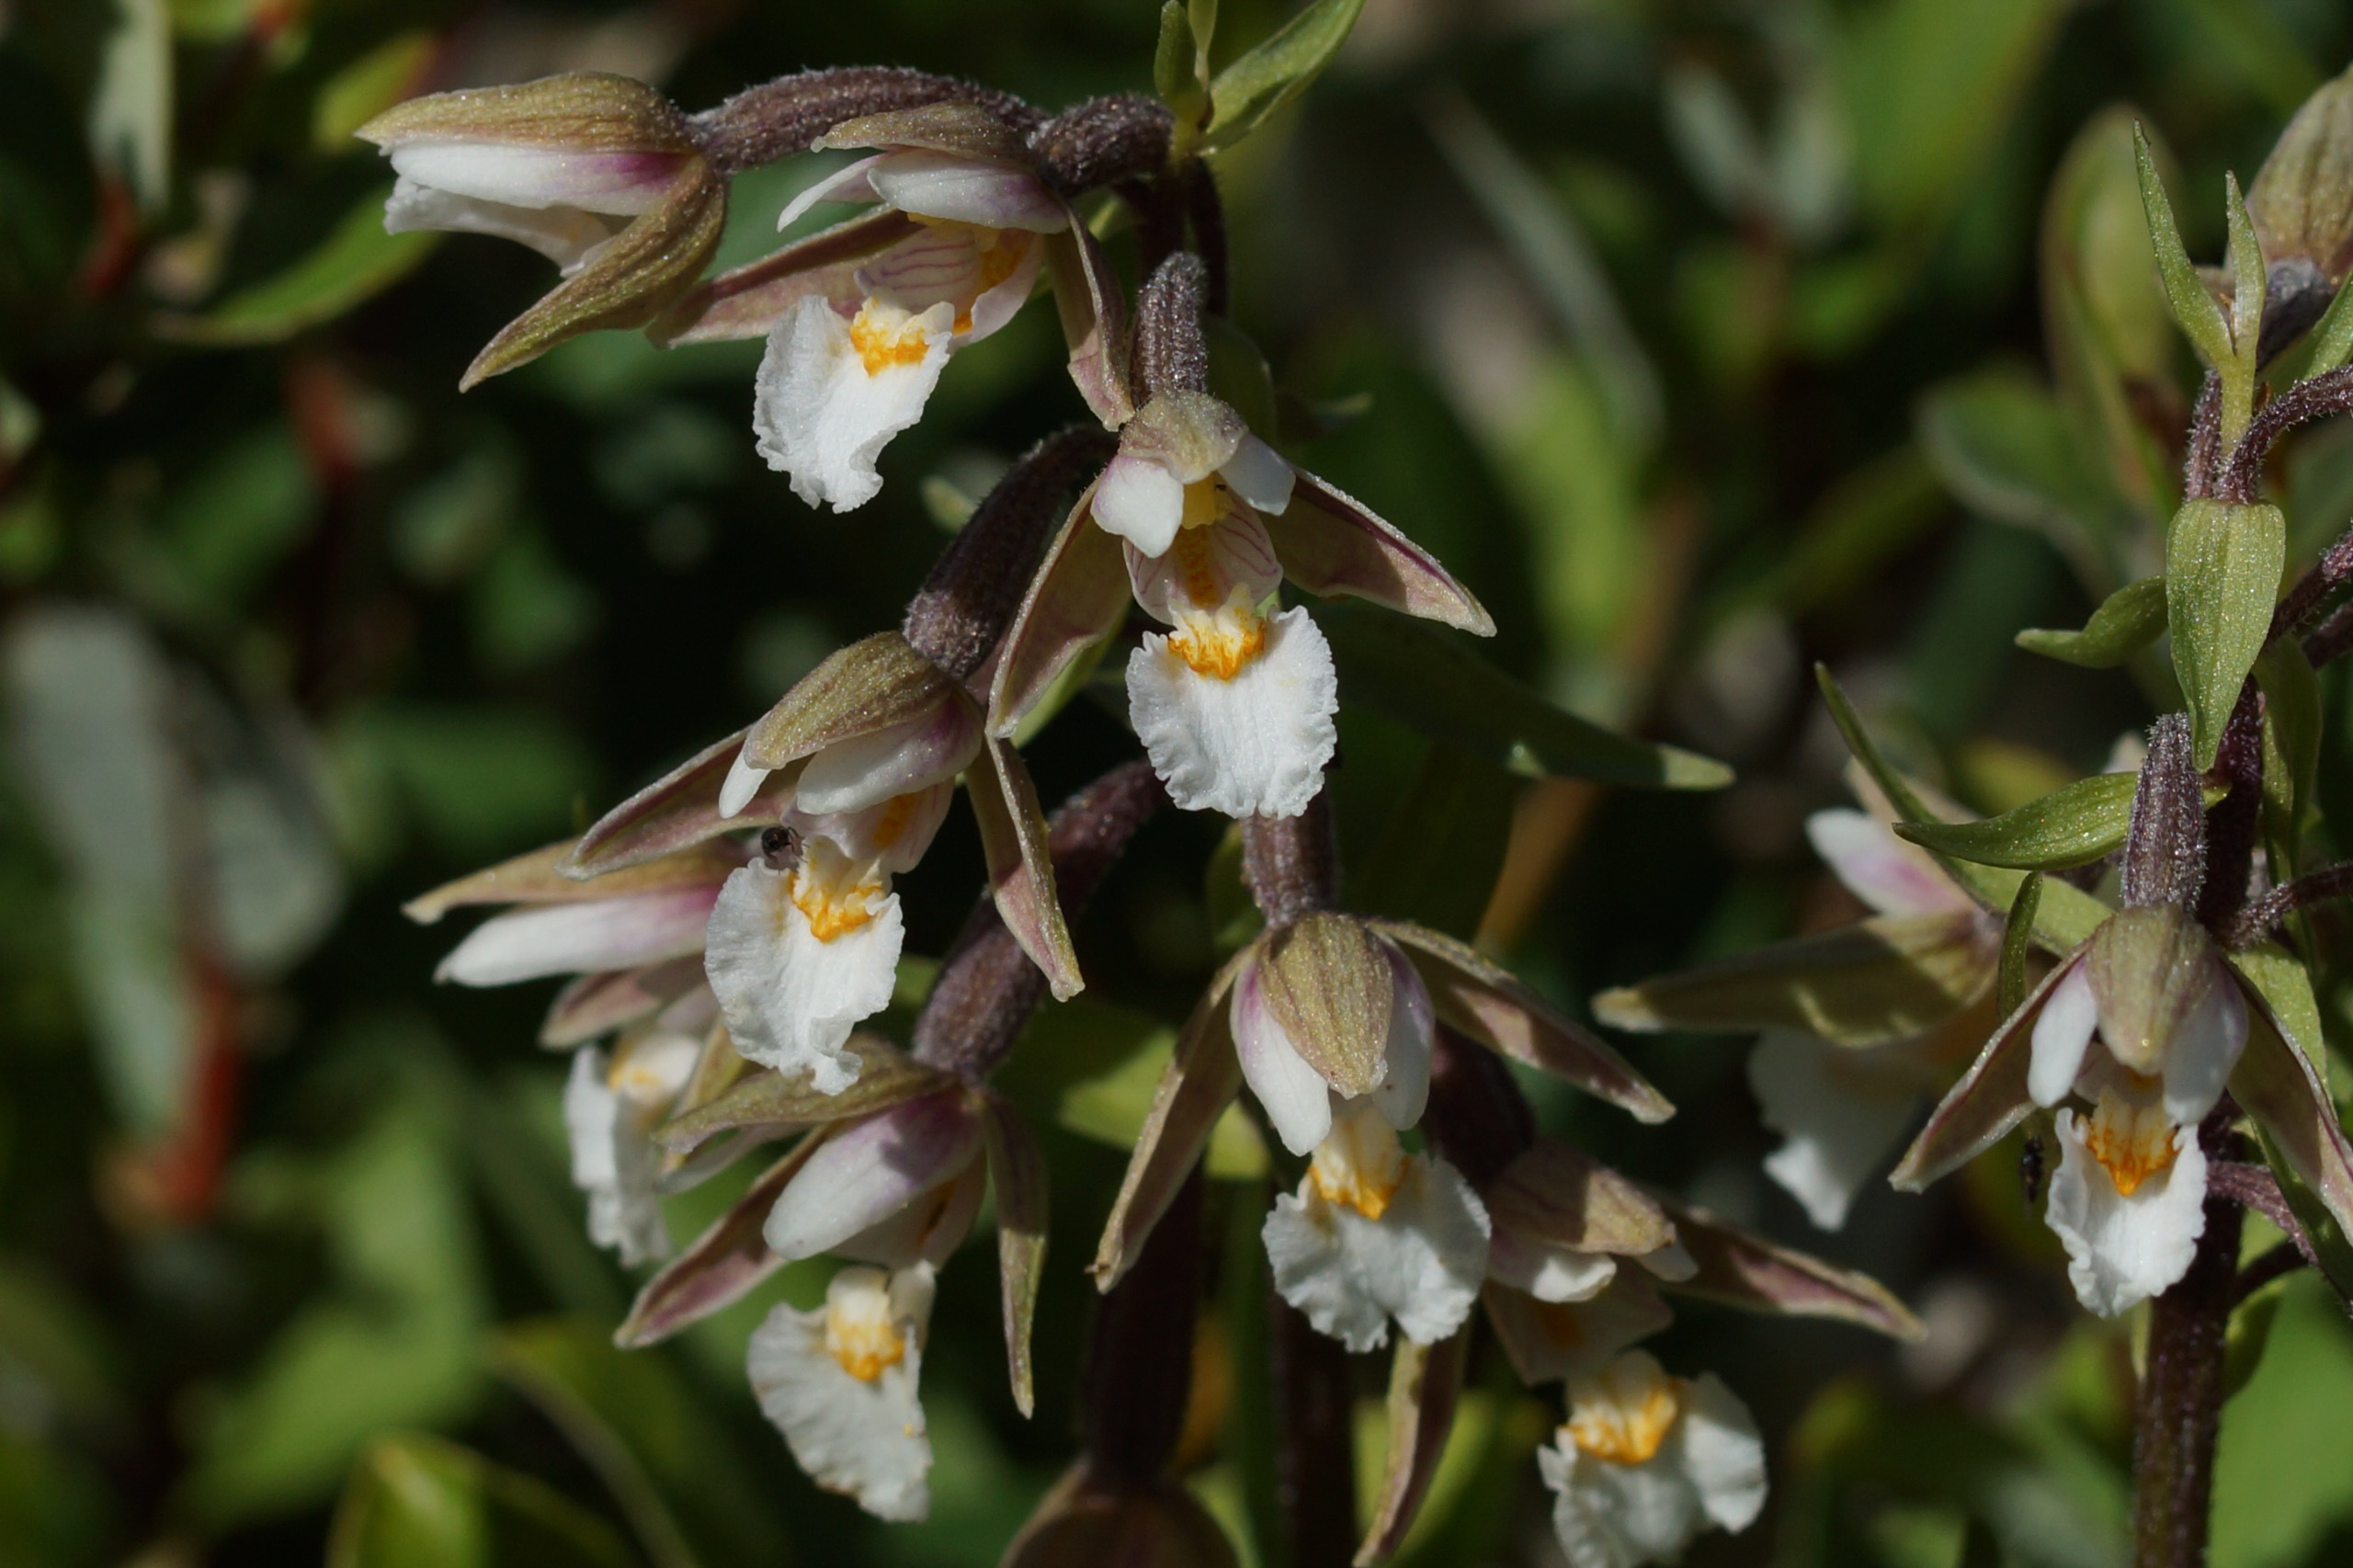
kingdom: Plantae
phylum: Tracheophyta
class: Liliopsida
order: Asparagales
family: Orchidaceae
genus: Epipactis
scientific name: Epipactis palustris
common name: Sump-hullæbe
